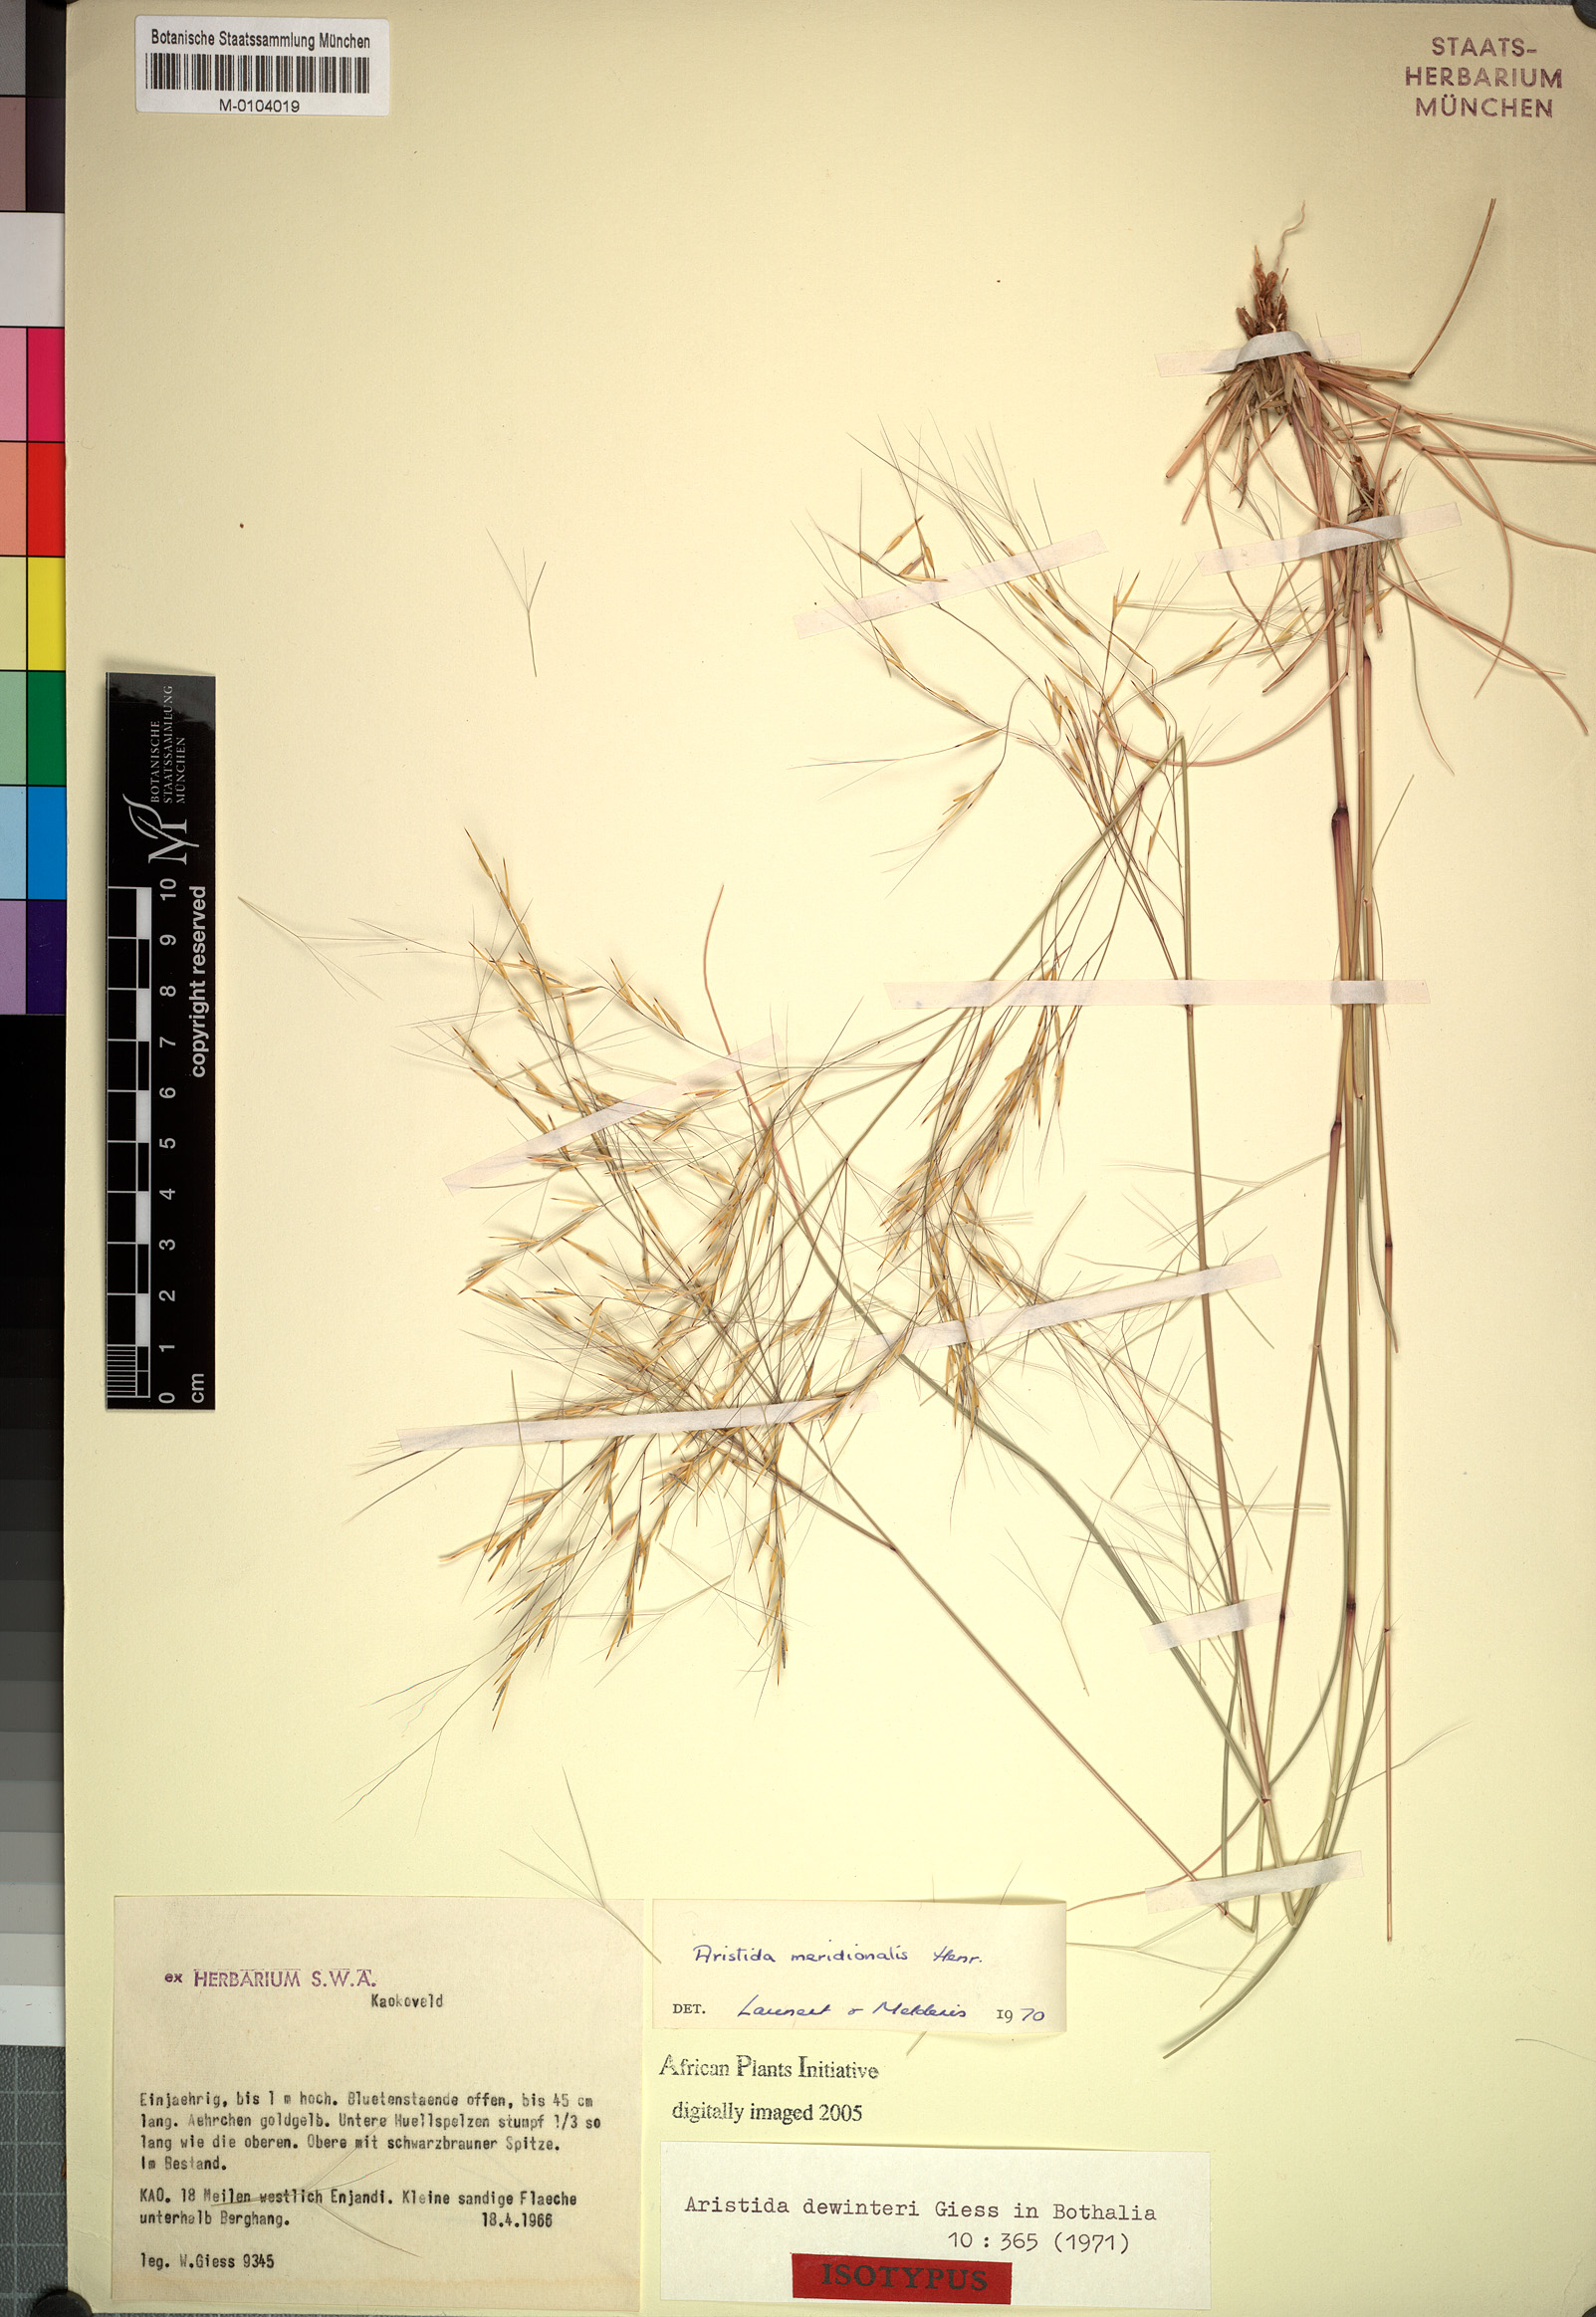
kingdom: Plantae
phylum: Tracheophyta
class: Liliopsida
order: Poales
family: Poaceae
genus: Aristida
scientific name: Aristida meridionalis
